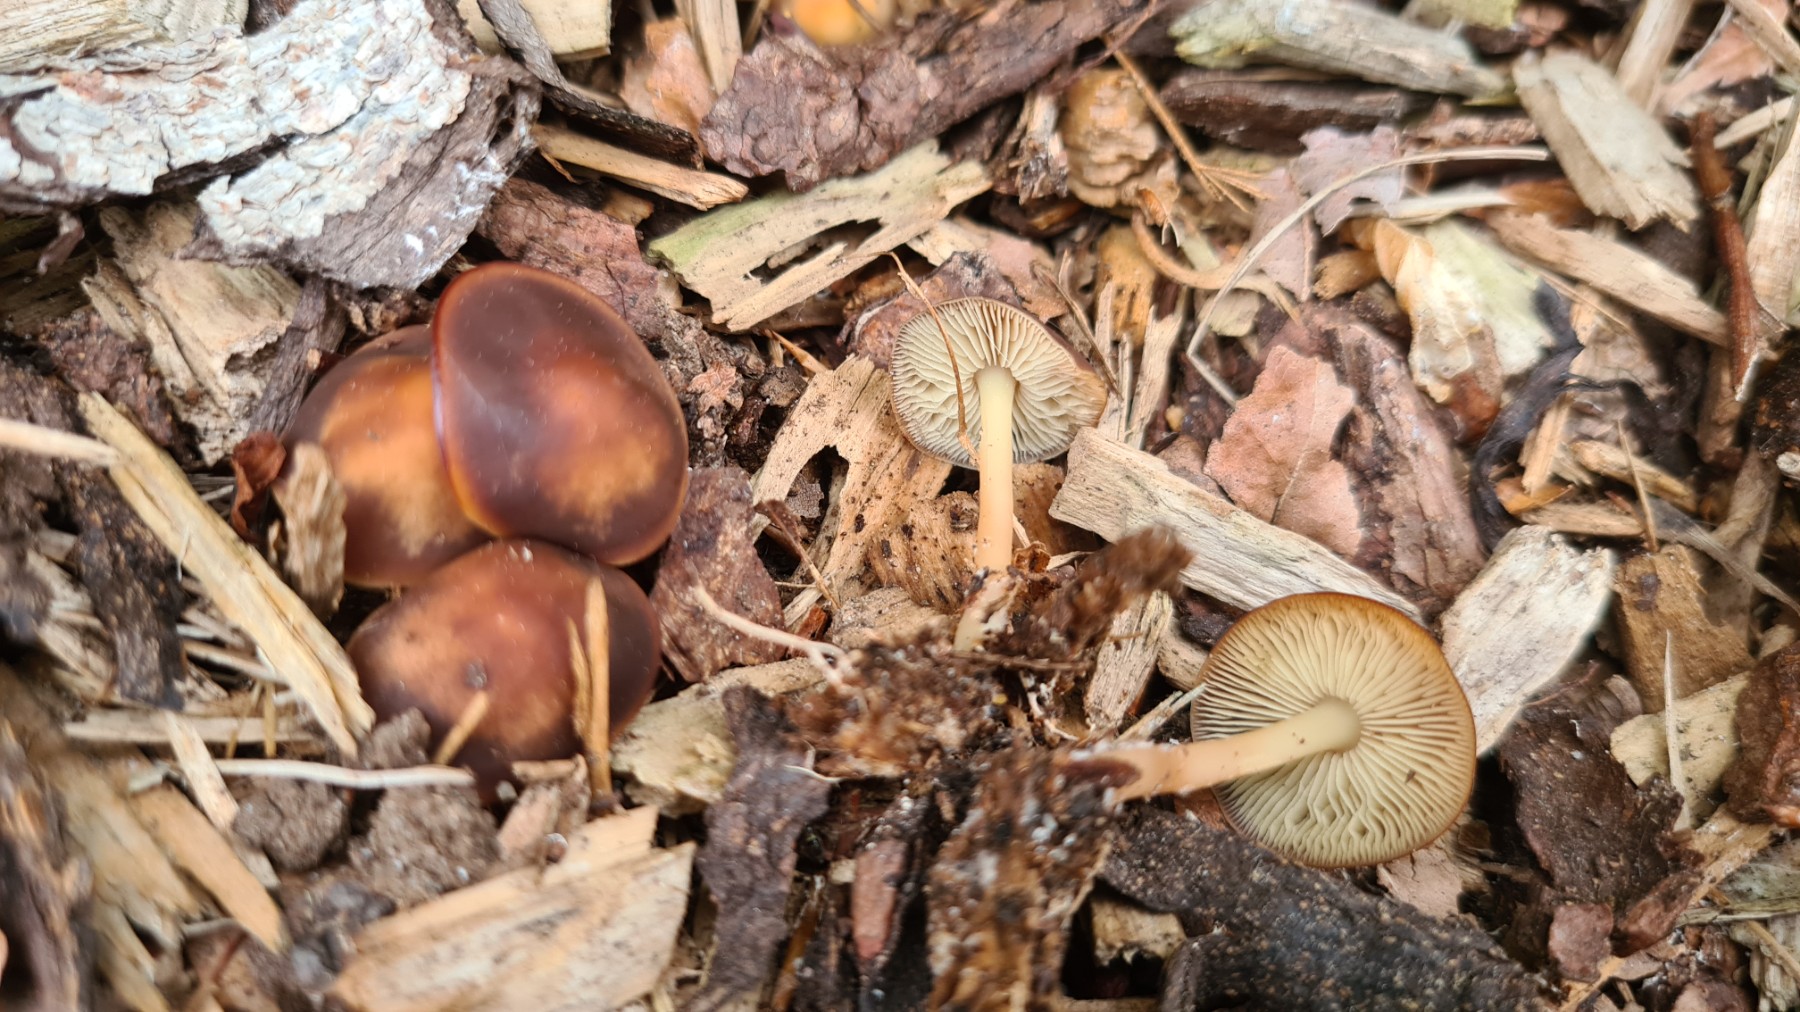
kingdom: Fungi
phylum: Basidiomycota
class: Agaricomycetes
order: Agaricales
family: Omphalotaceae
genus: Gymnopus
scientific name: Gymnopus ocior
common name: mørk fladhat
